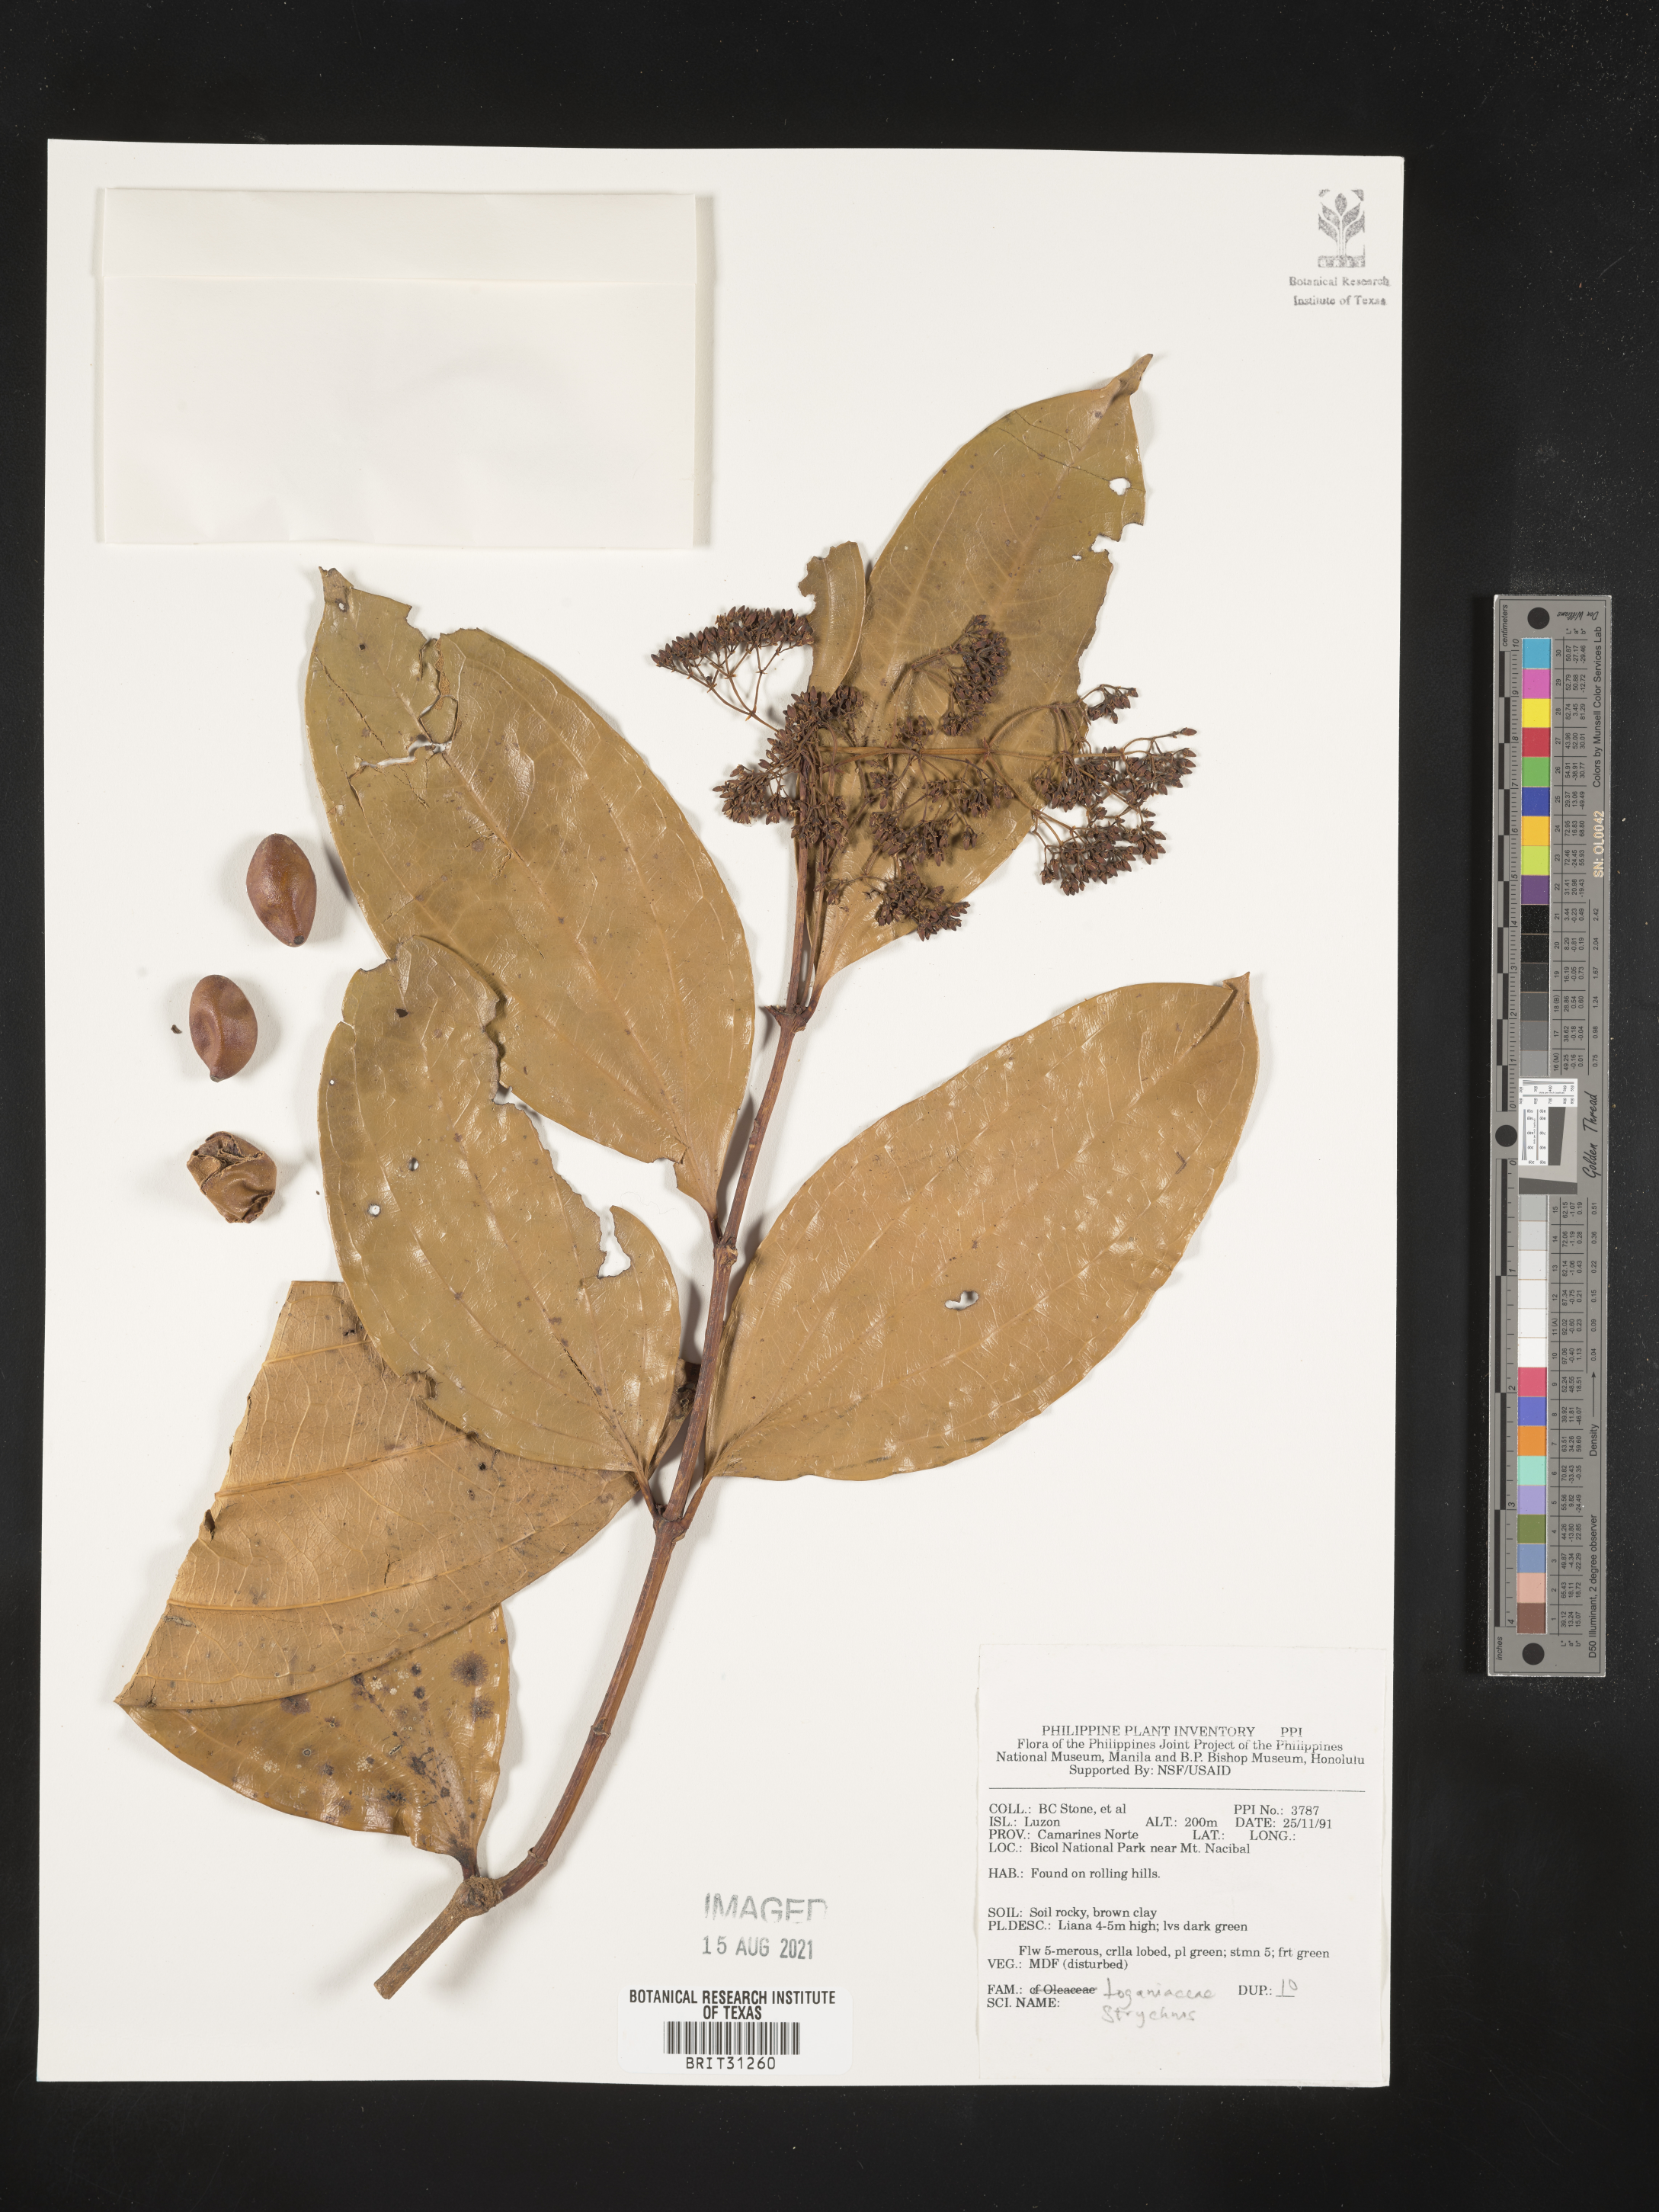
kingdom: Plantae
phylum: Tracheophyta
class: Magnoliopsida
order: Gentianales
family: Loganiaceae
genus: Strychnos
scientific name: Strychnos
